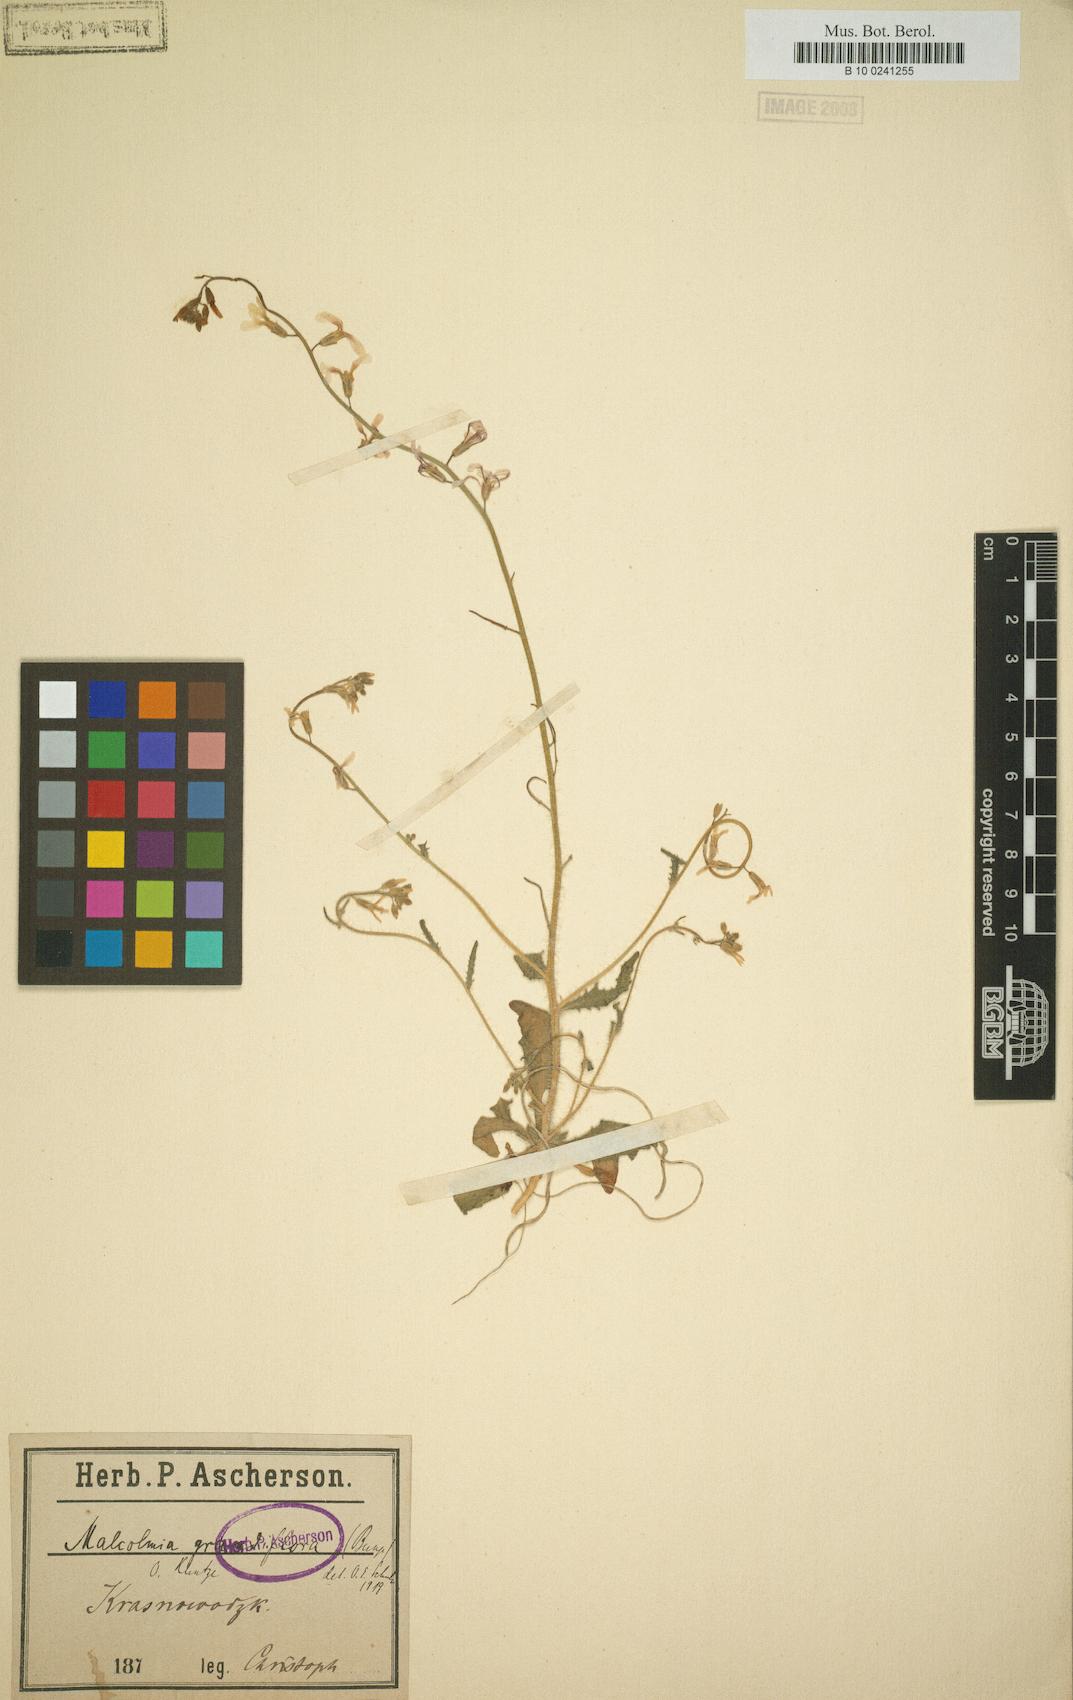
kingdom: Plantae
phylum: Tracheophyta
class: Magnoliopsida
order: Brassicales
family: Brassicaceae
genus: Strigosella
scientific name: Strigosella grandiflora
